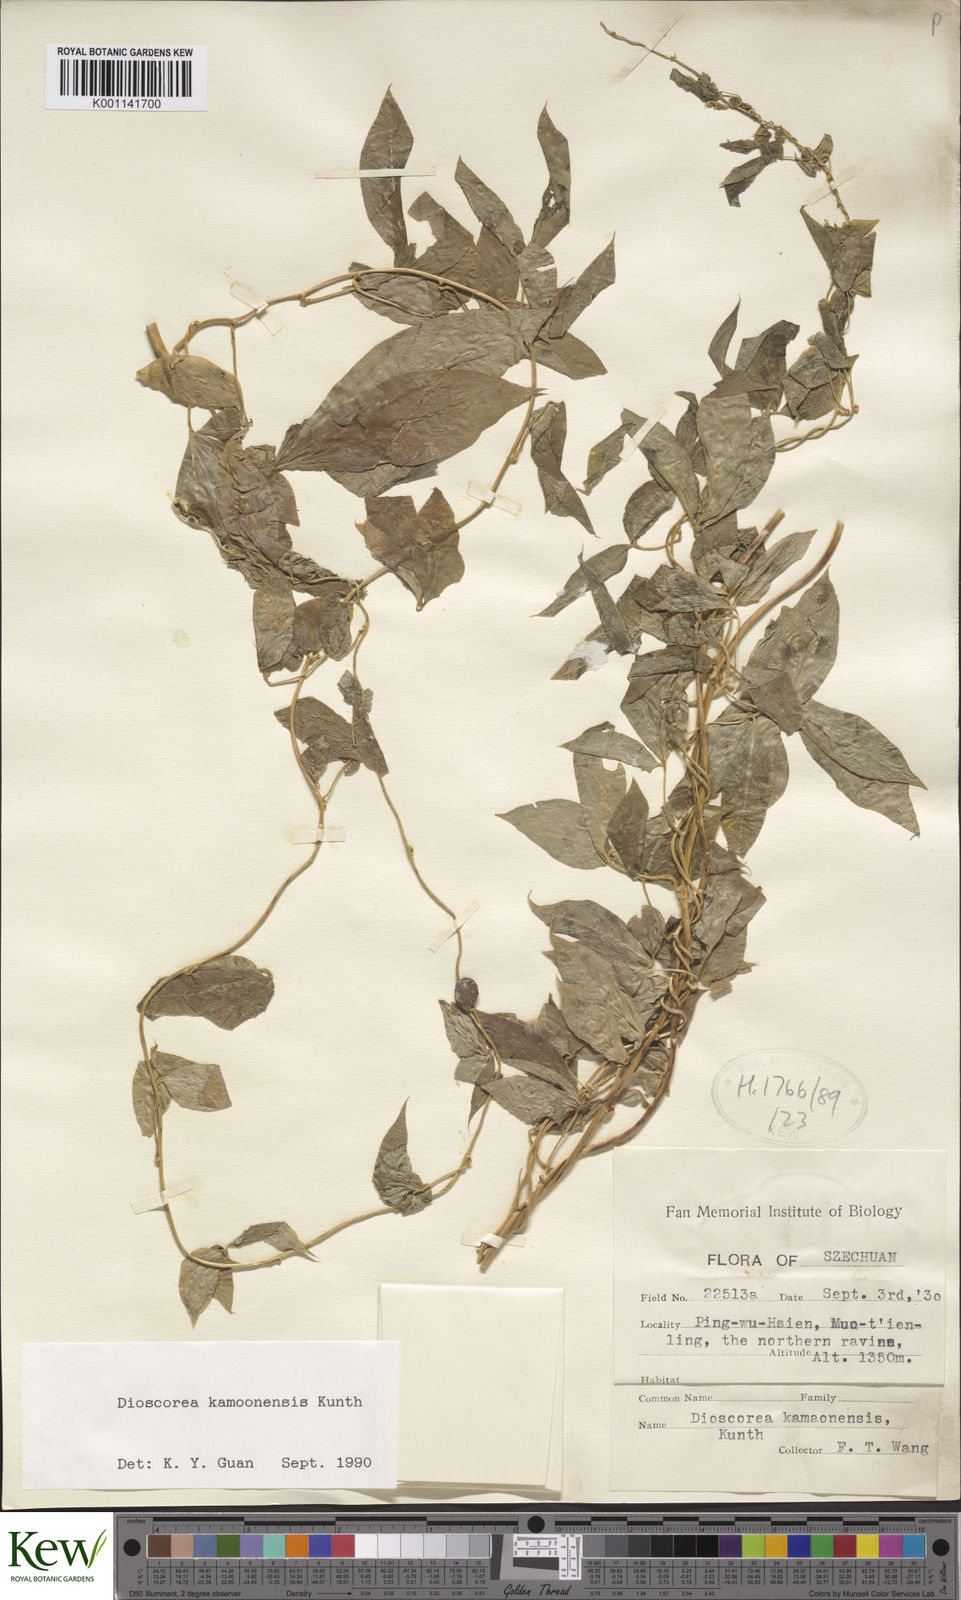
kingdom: Plantae
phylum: Tracheophyta
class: Liliopsida
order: Dioscoreales
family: Dioscoreaceae
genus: Dioscorea
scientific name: Dioscorea kamoonensis
